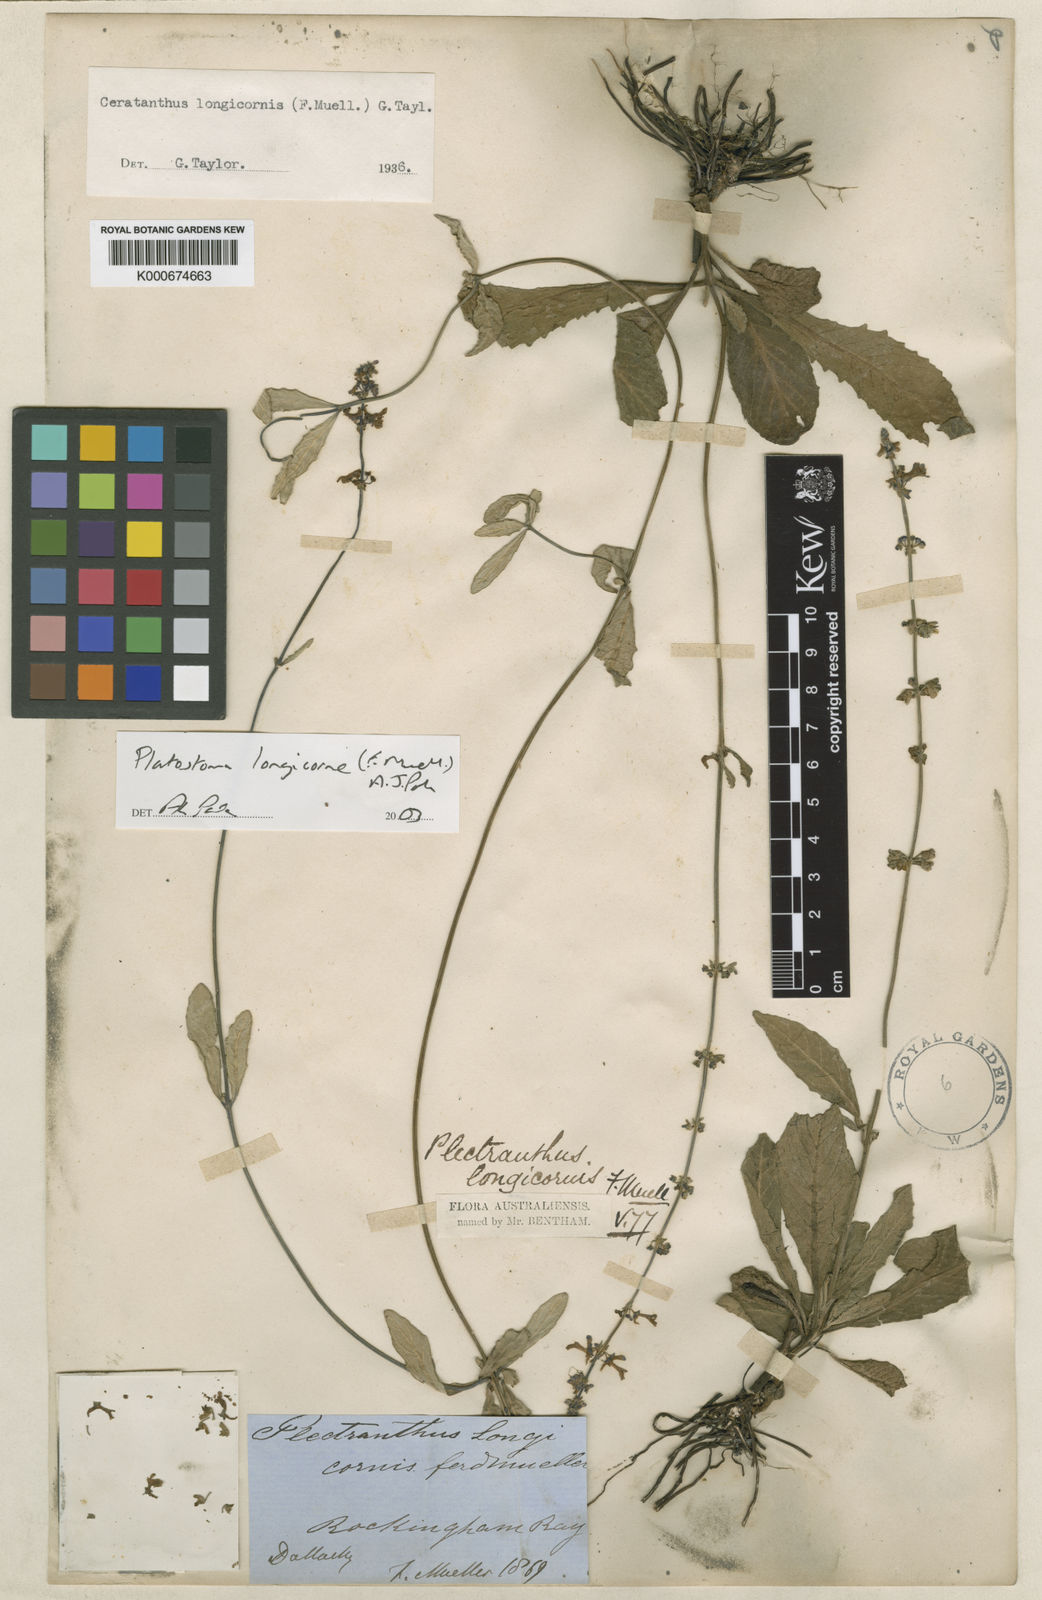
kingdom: Plantae
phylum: Tracheophyta
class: Magnoliopsida
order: Lamiales
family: Lamiaceae
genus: Platostoma
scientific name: Platostoma longicorne
